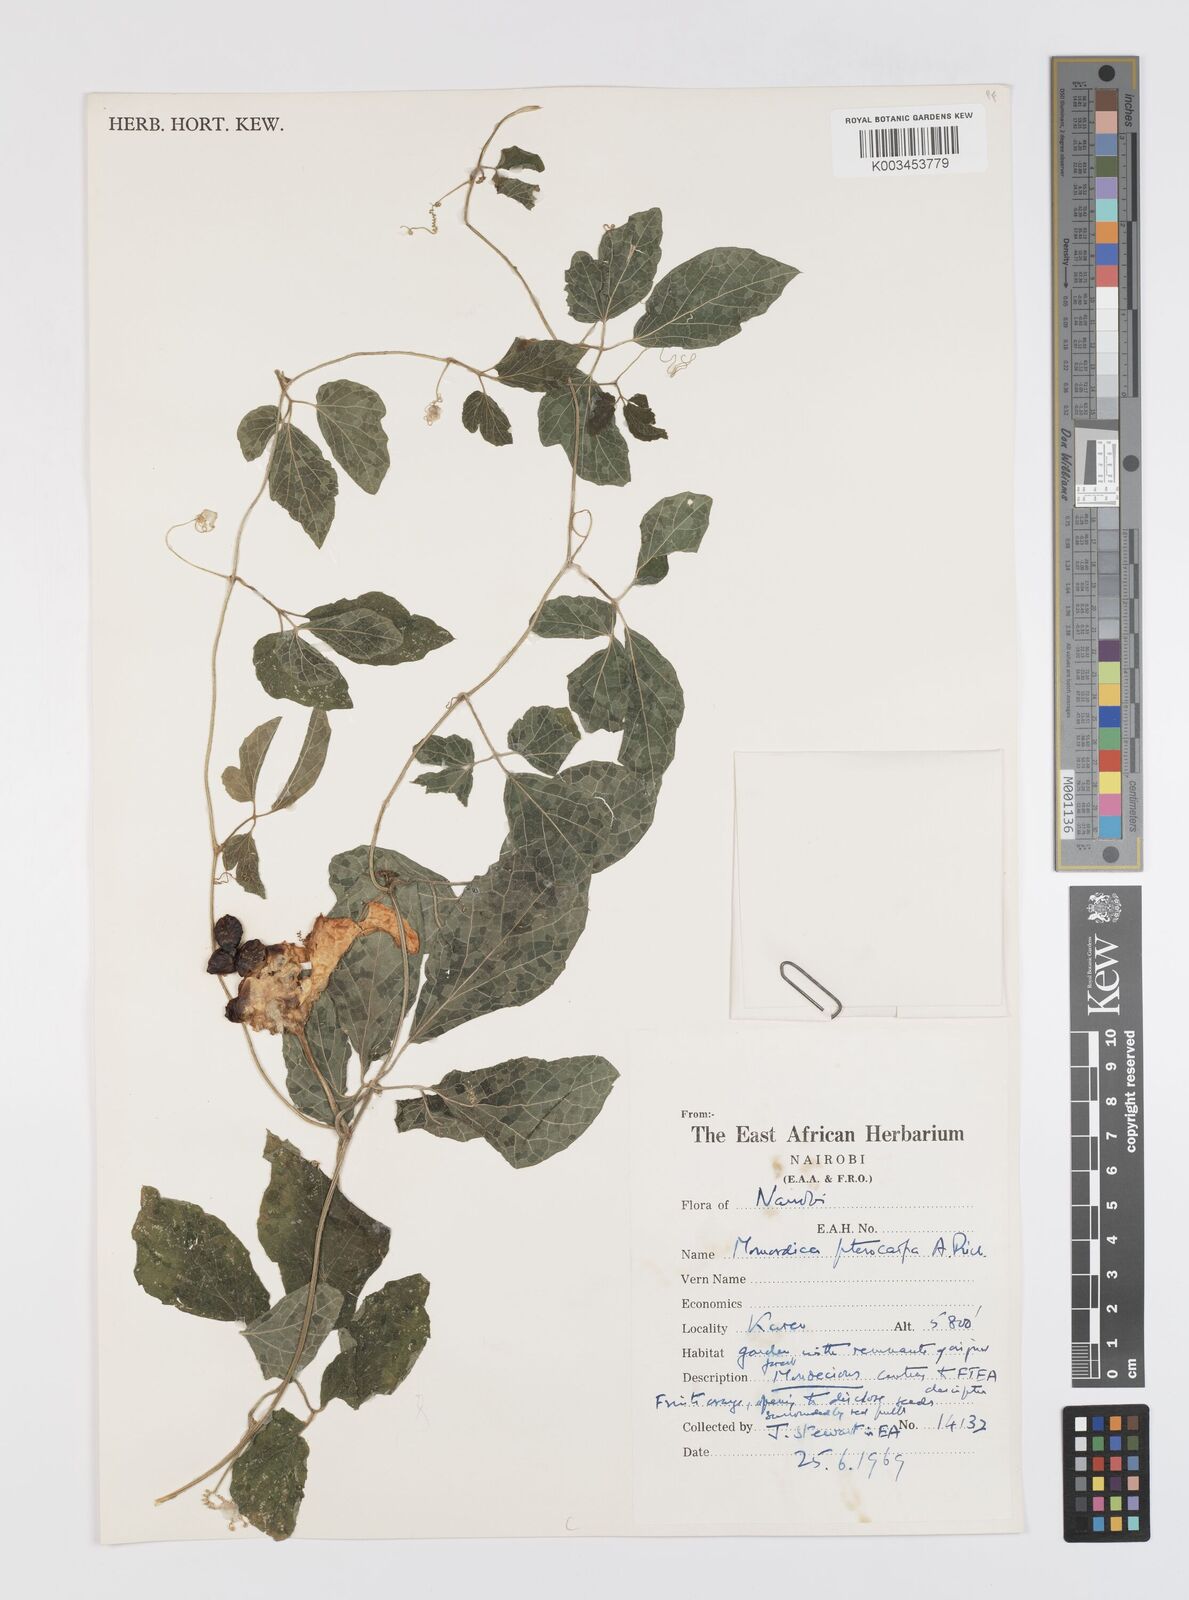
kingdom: Plantae
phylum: Tracheophyta
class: Magnoliopsida
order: Cucurbitales
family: Cucurbitaceae
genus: Momordica
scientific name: Momordica pterocarpa
